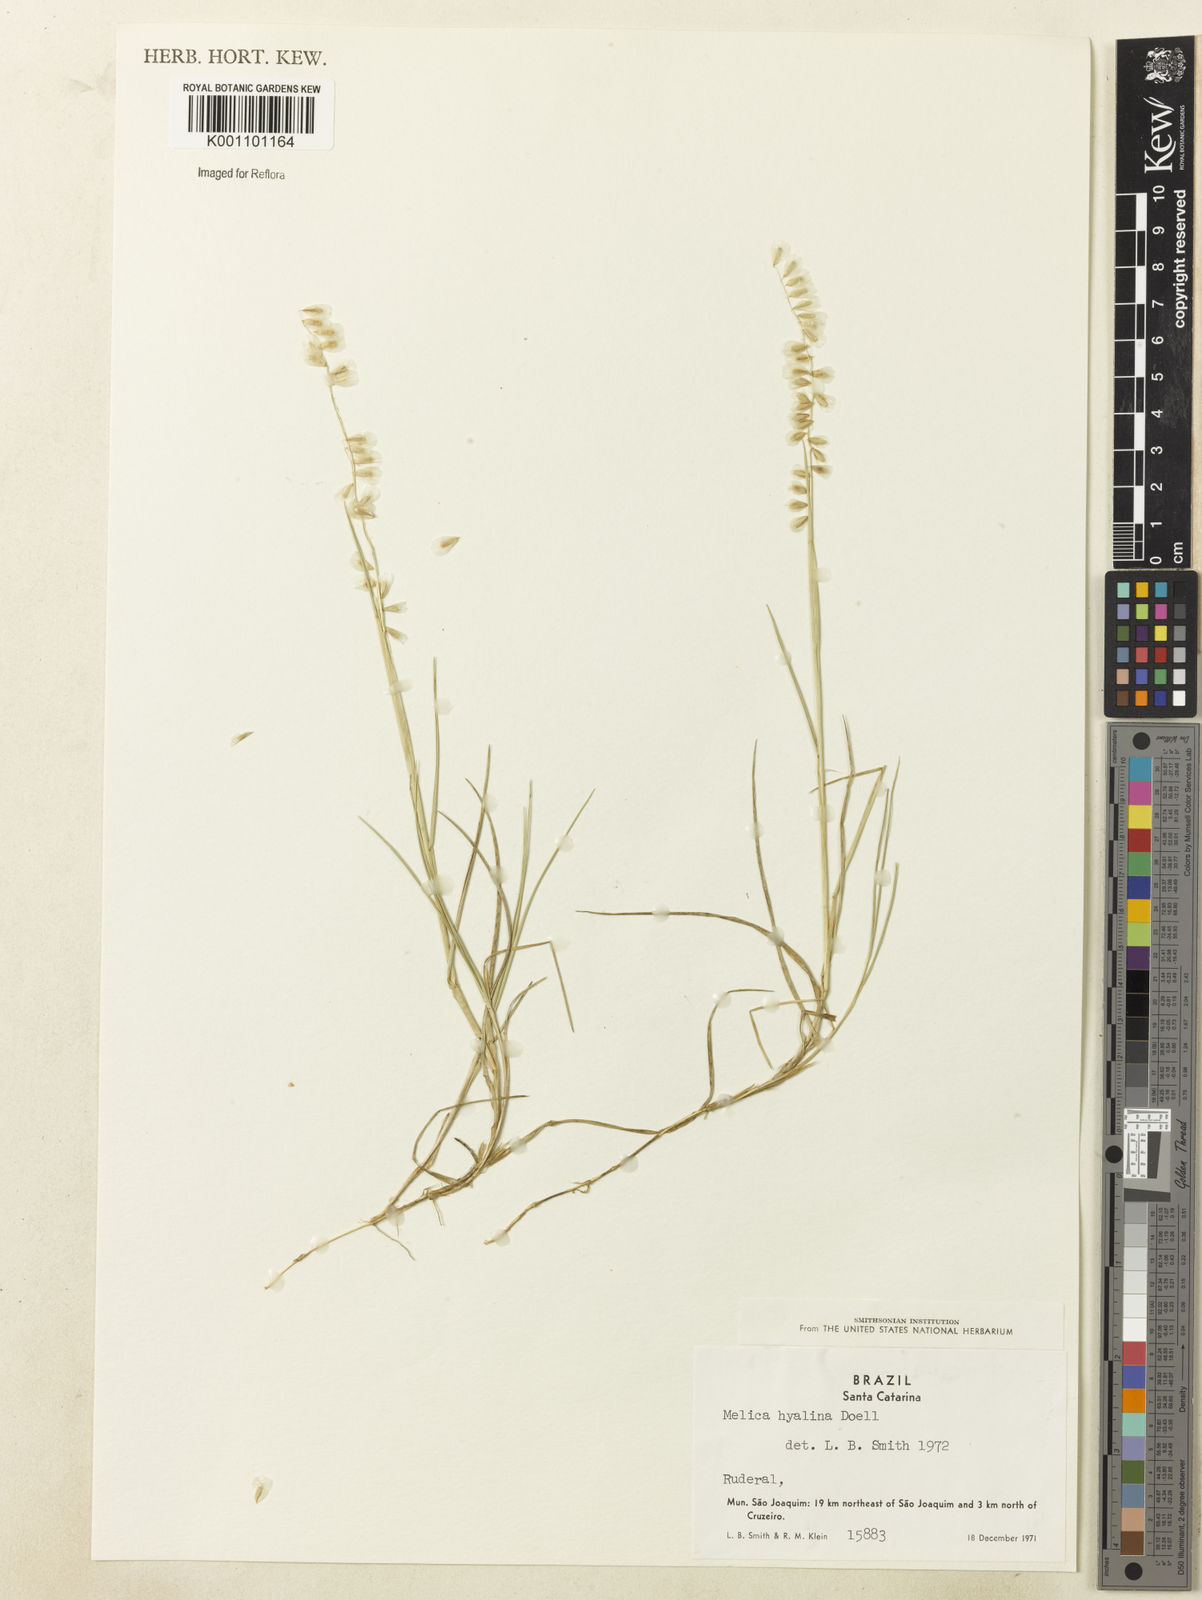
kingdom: Plantae
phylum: Tracheophyta
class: Liliopsida
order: Poales
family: Poaceae
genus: Melica
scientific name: Melica
